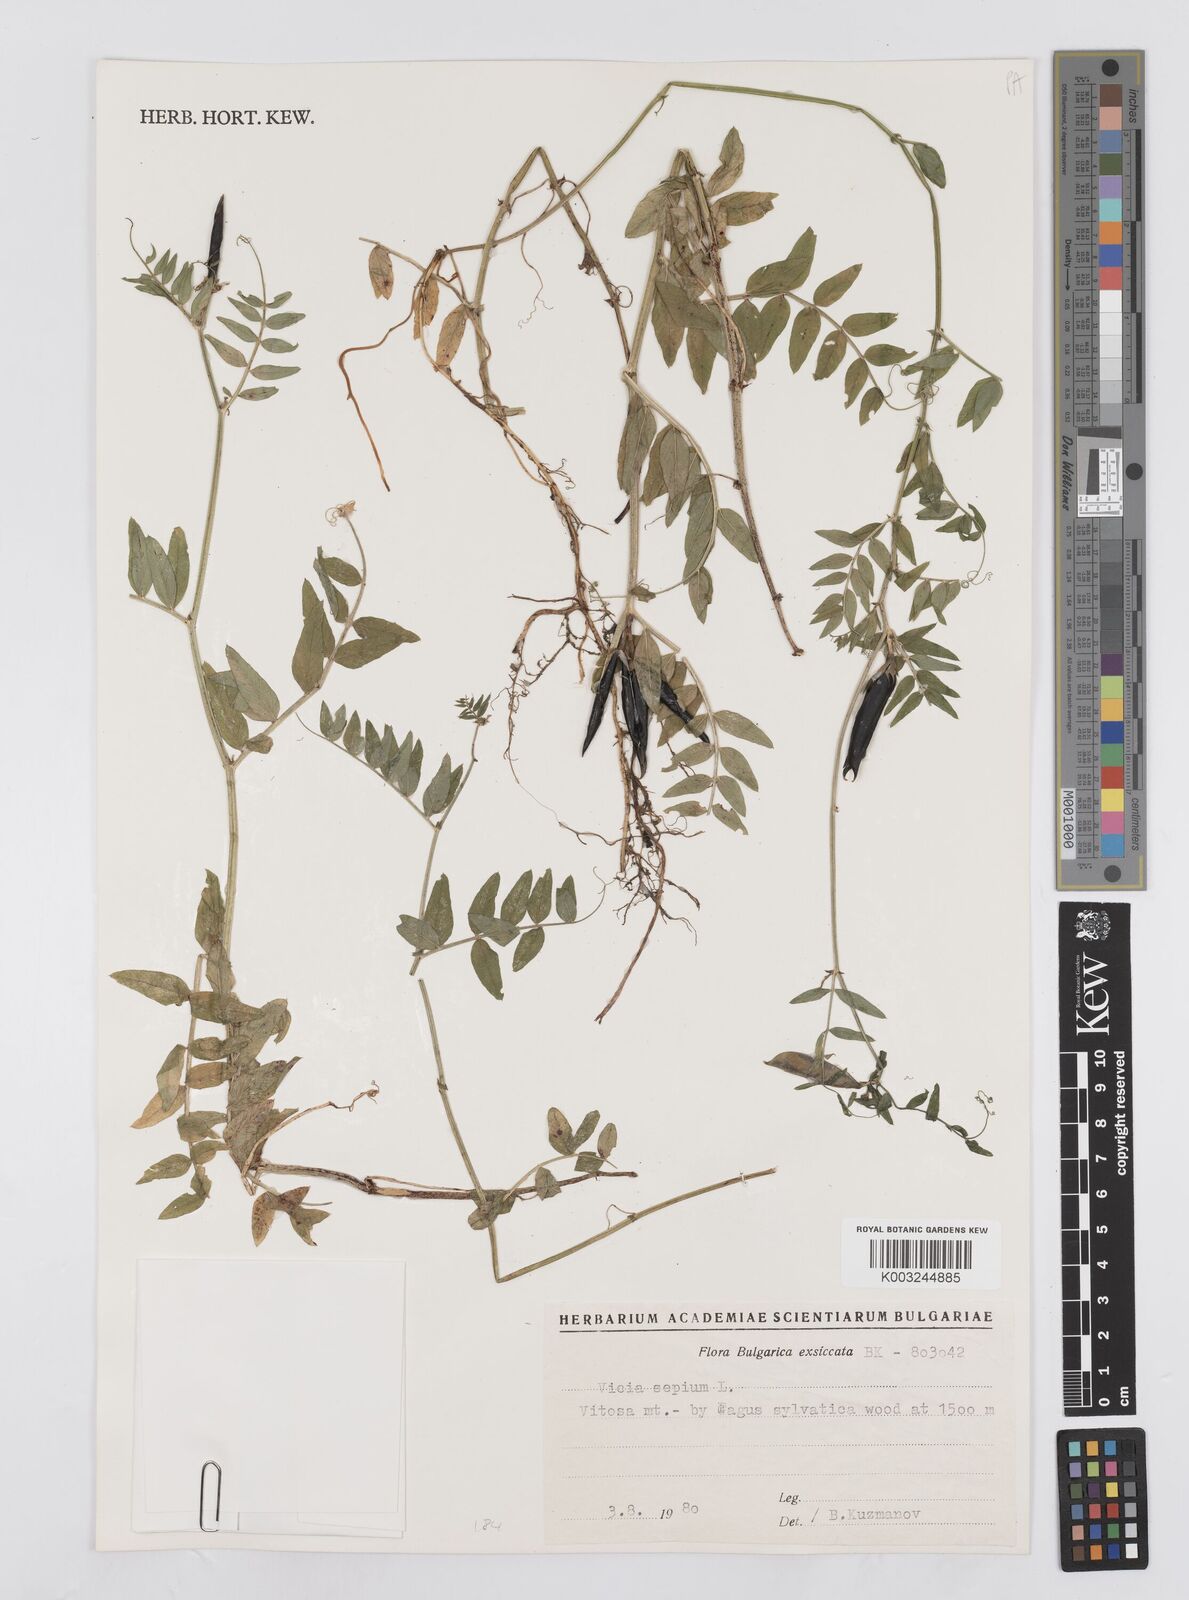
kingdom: Plantae
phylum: Tracheophyta
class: Magnoliopsida
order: Fabales
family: Fabaceae
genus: Vicia
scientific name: Vicia sepium
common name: Bush vetch
